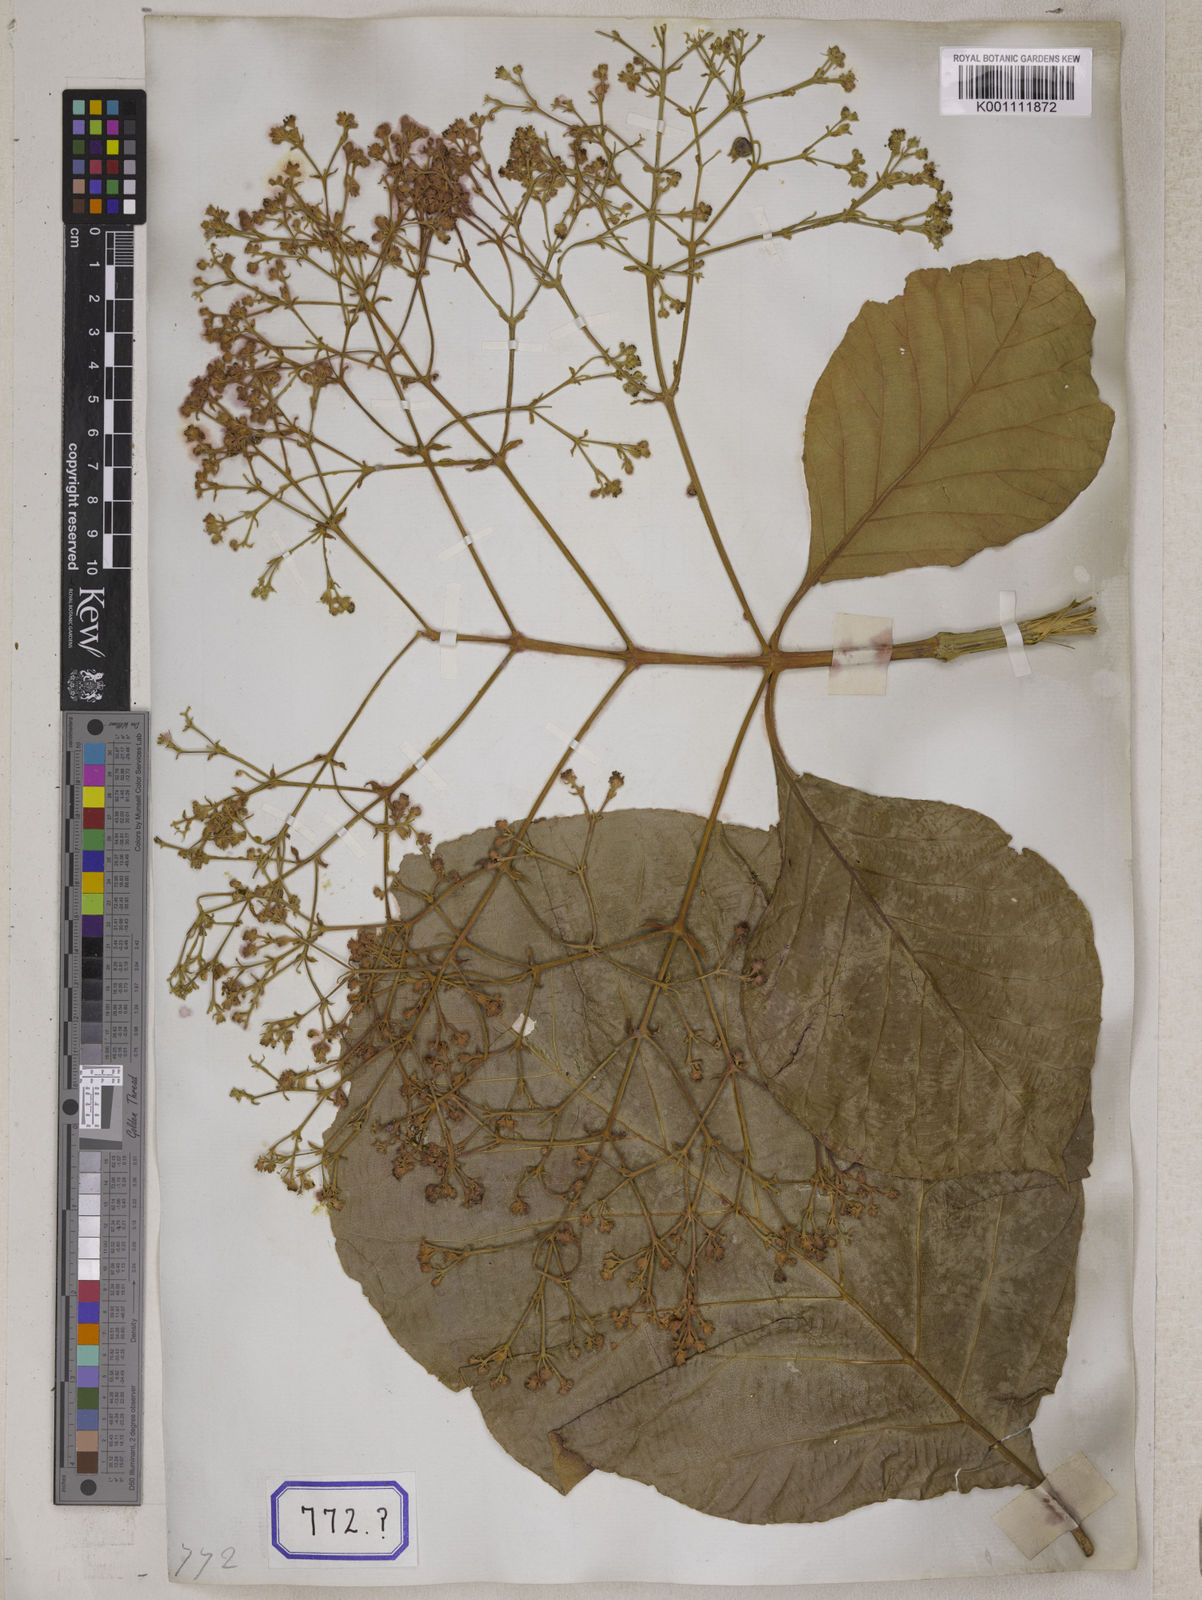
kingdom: Plantae
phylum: Tracheophyta
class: Magnoliopsida
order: Lamiales
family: Lamiaceae
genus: Tectona
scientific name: Tectona
